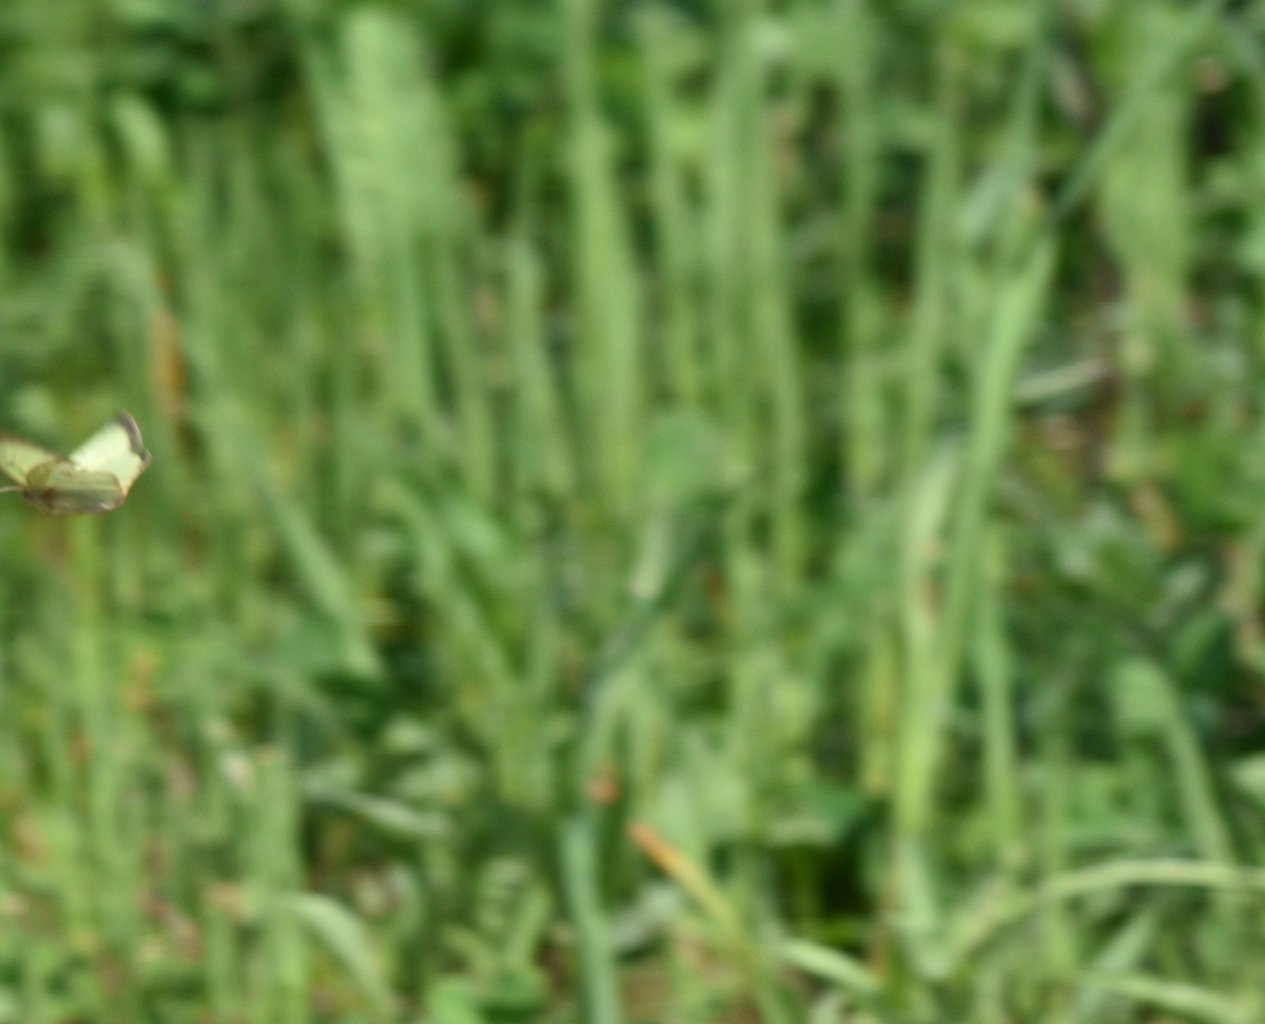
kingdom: Animalia
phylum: Arthropoda
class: Insecta
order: Lepidoptera
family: Pieridae
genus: Colias
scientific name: Colias philodice
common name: Clouded Sulphur
